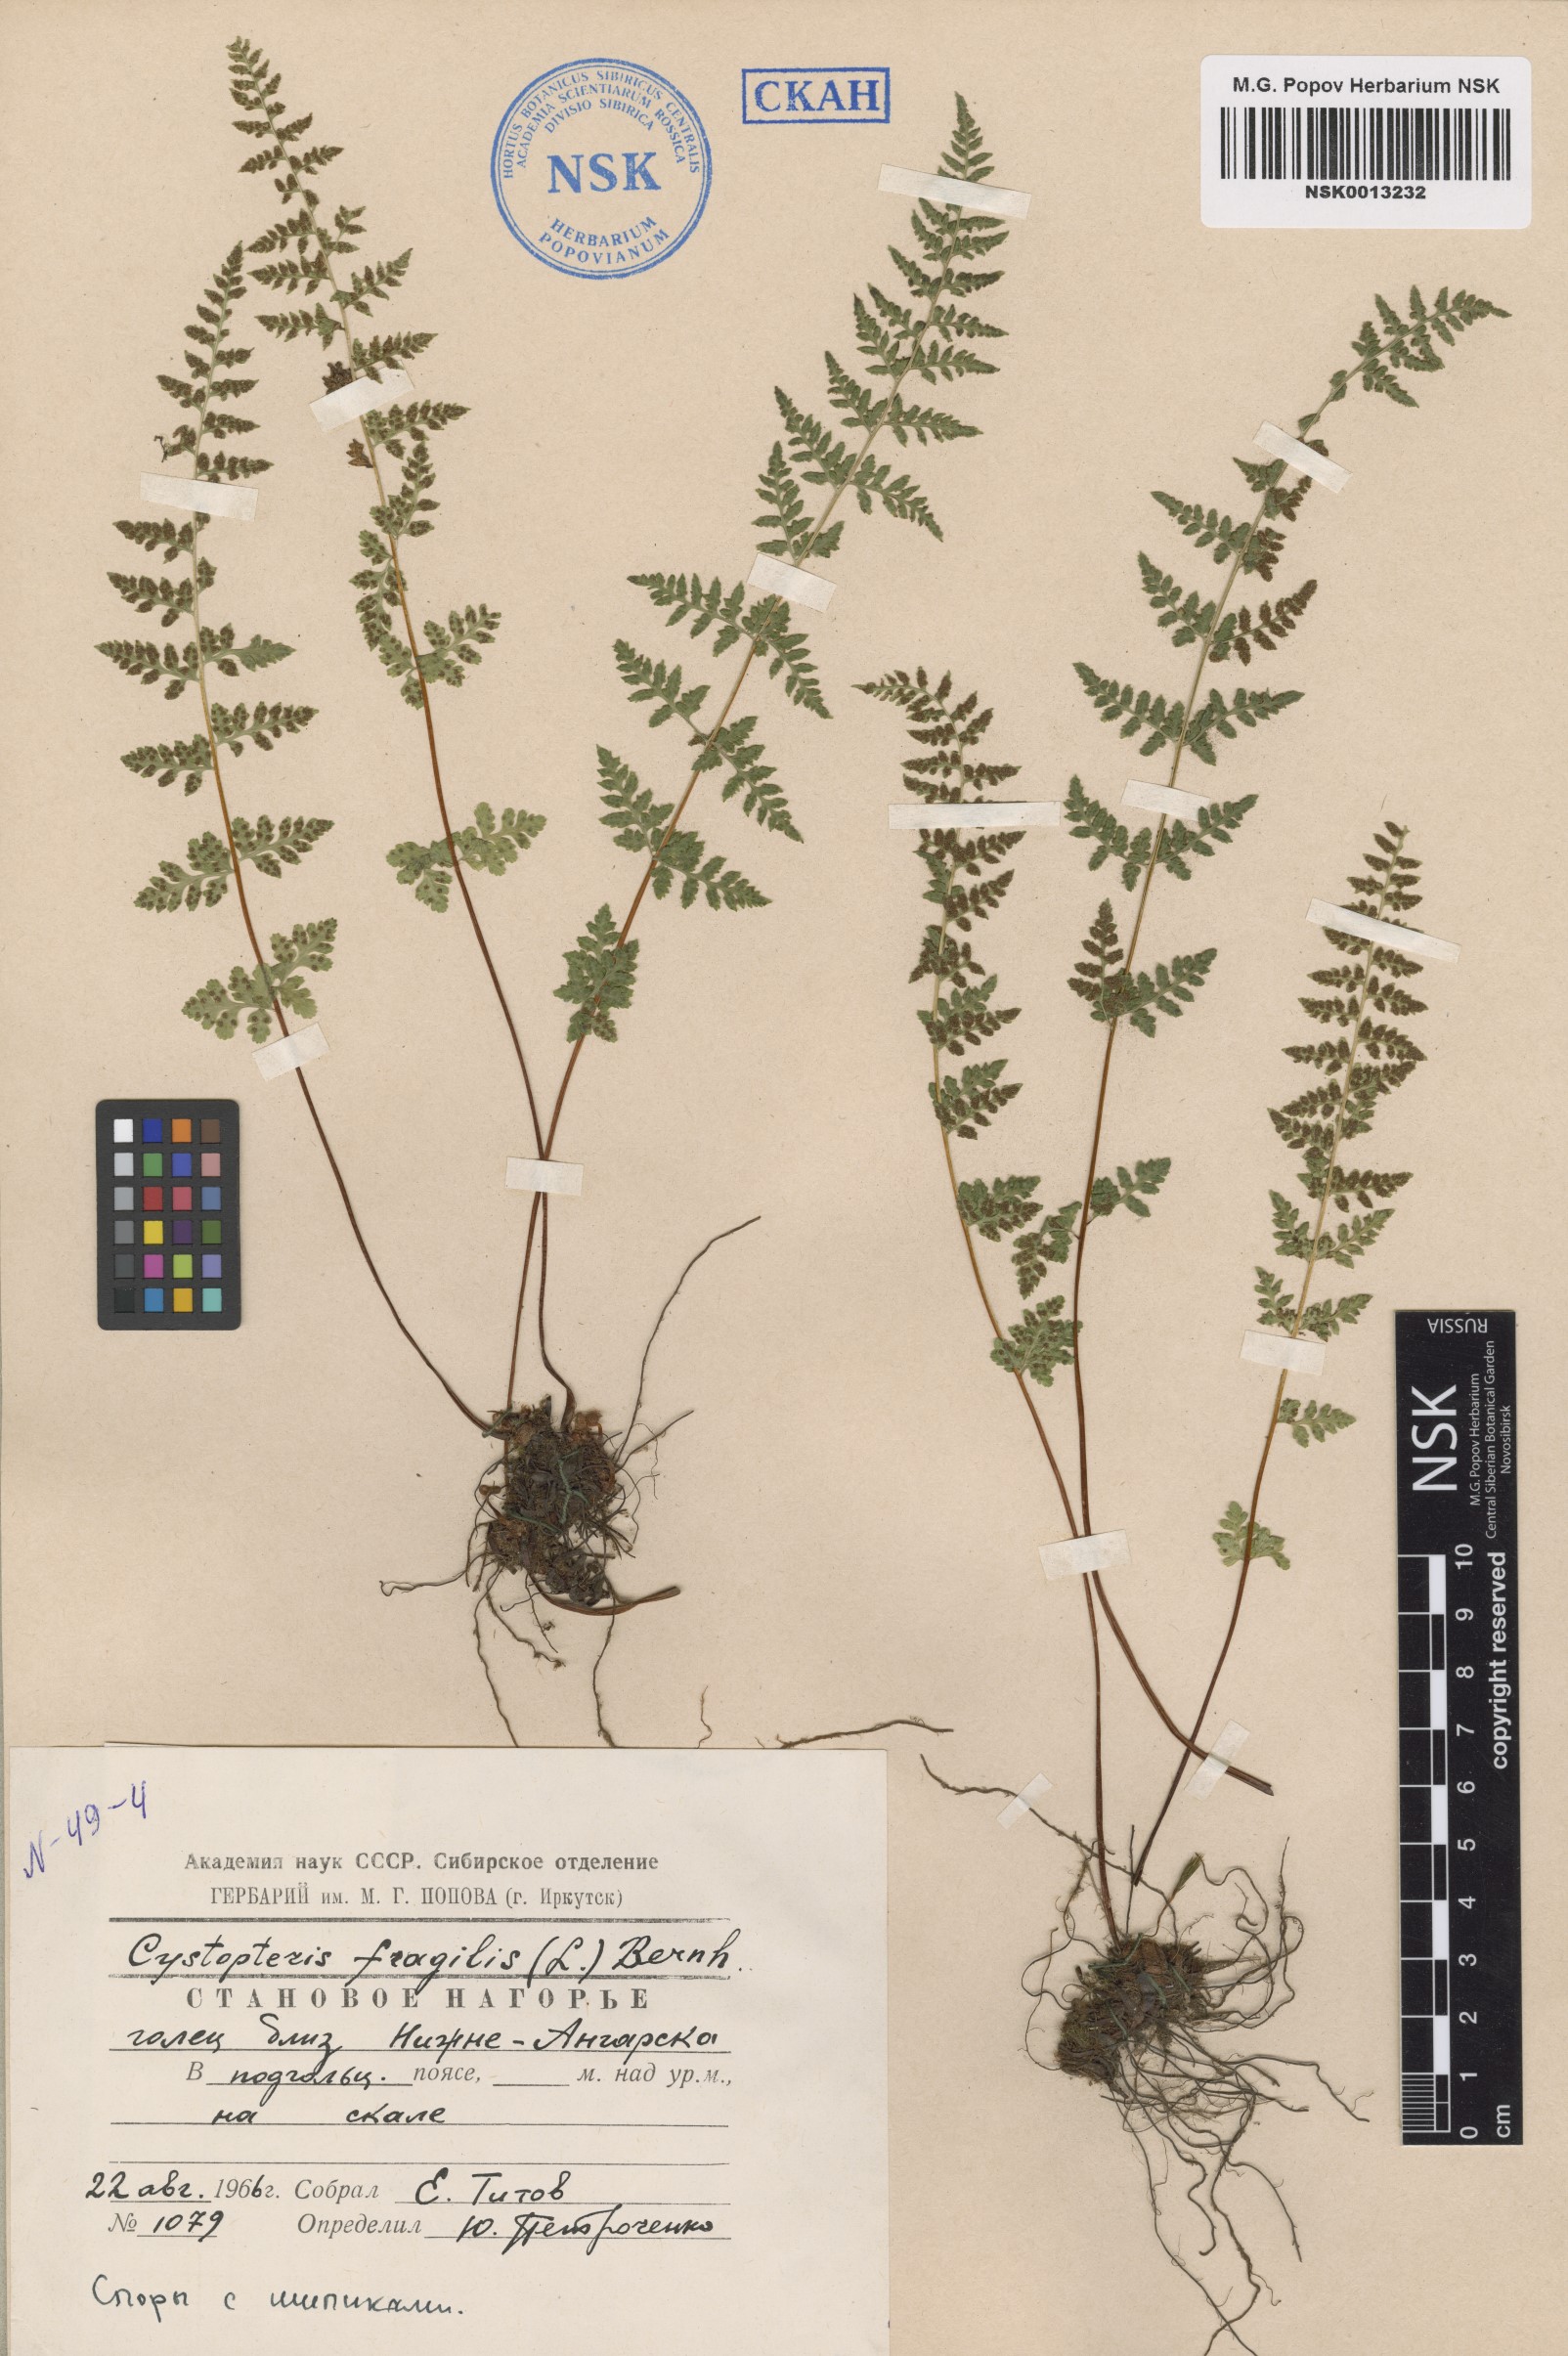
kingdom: Plantae
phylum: Tracheophyta
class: Polypodiopsida
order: Polypodiales
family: Cystopteridaceae
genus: Cystopteris
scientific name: Cystopteris fragilis
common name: Brittle bladder fern
